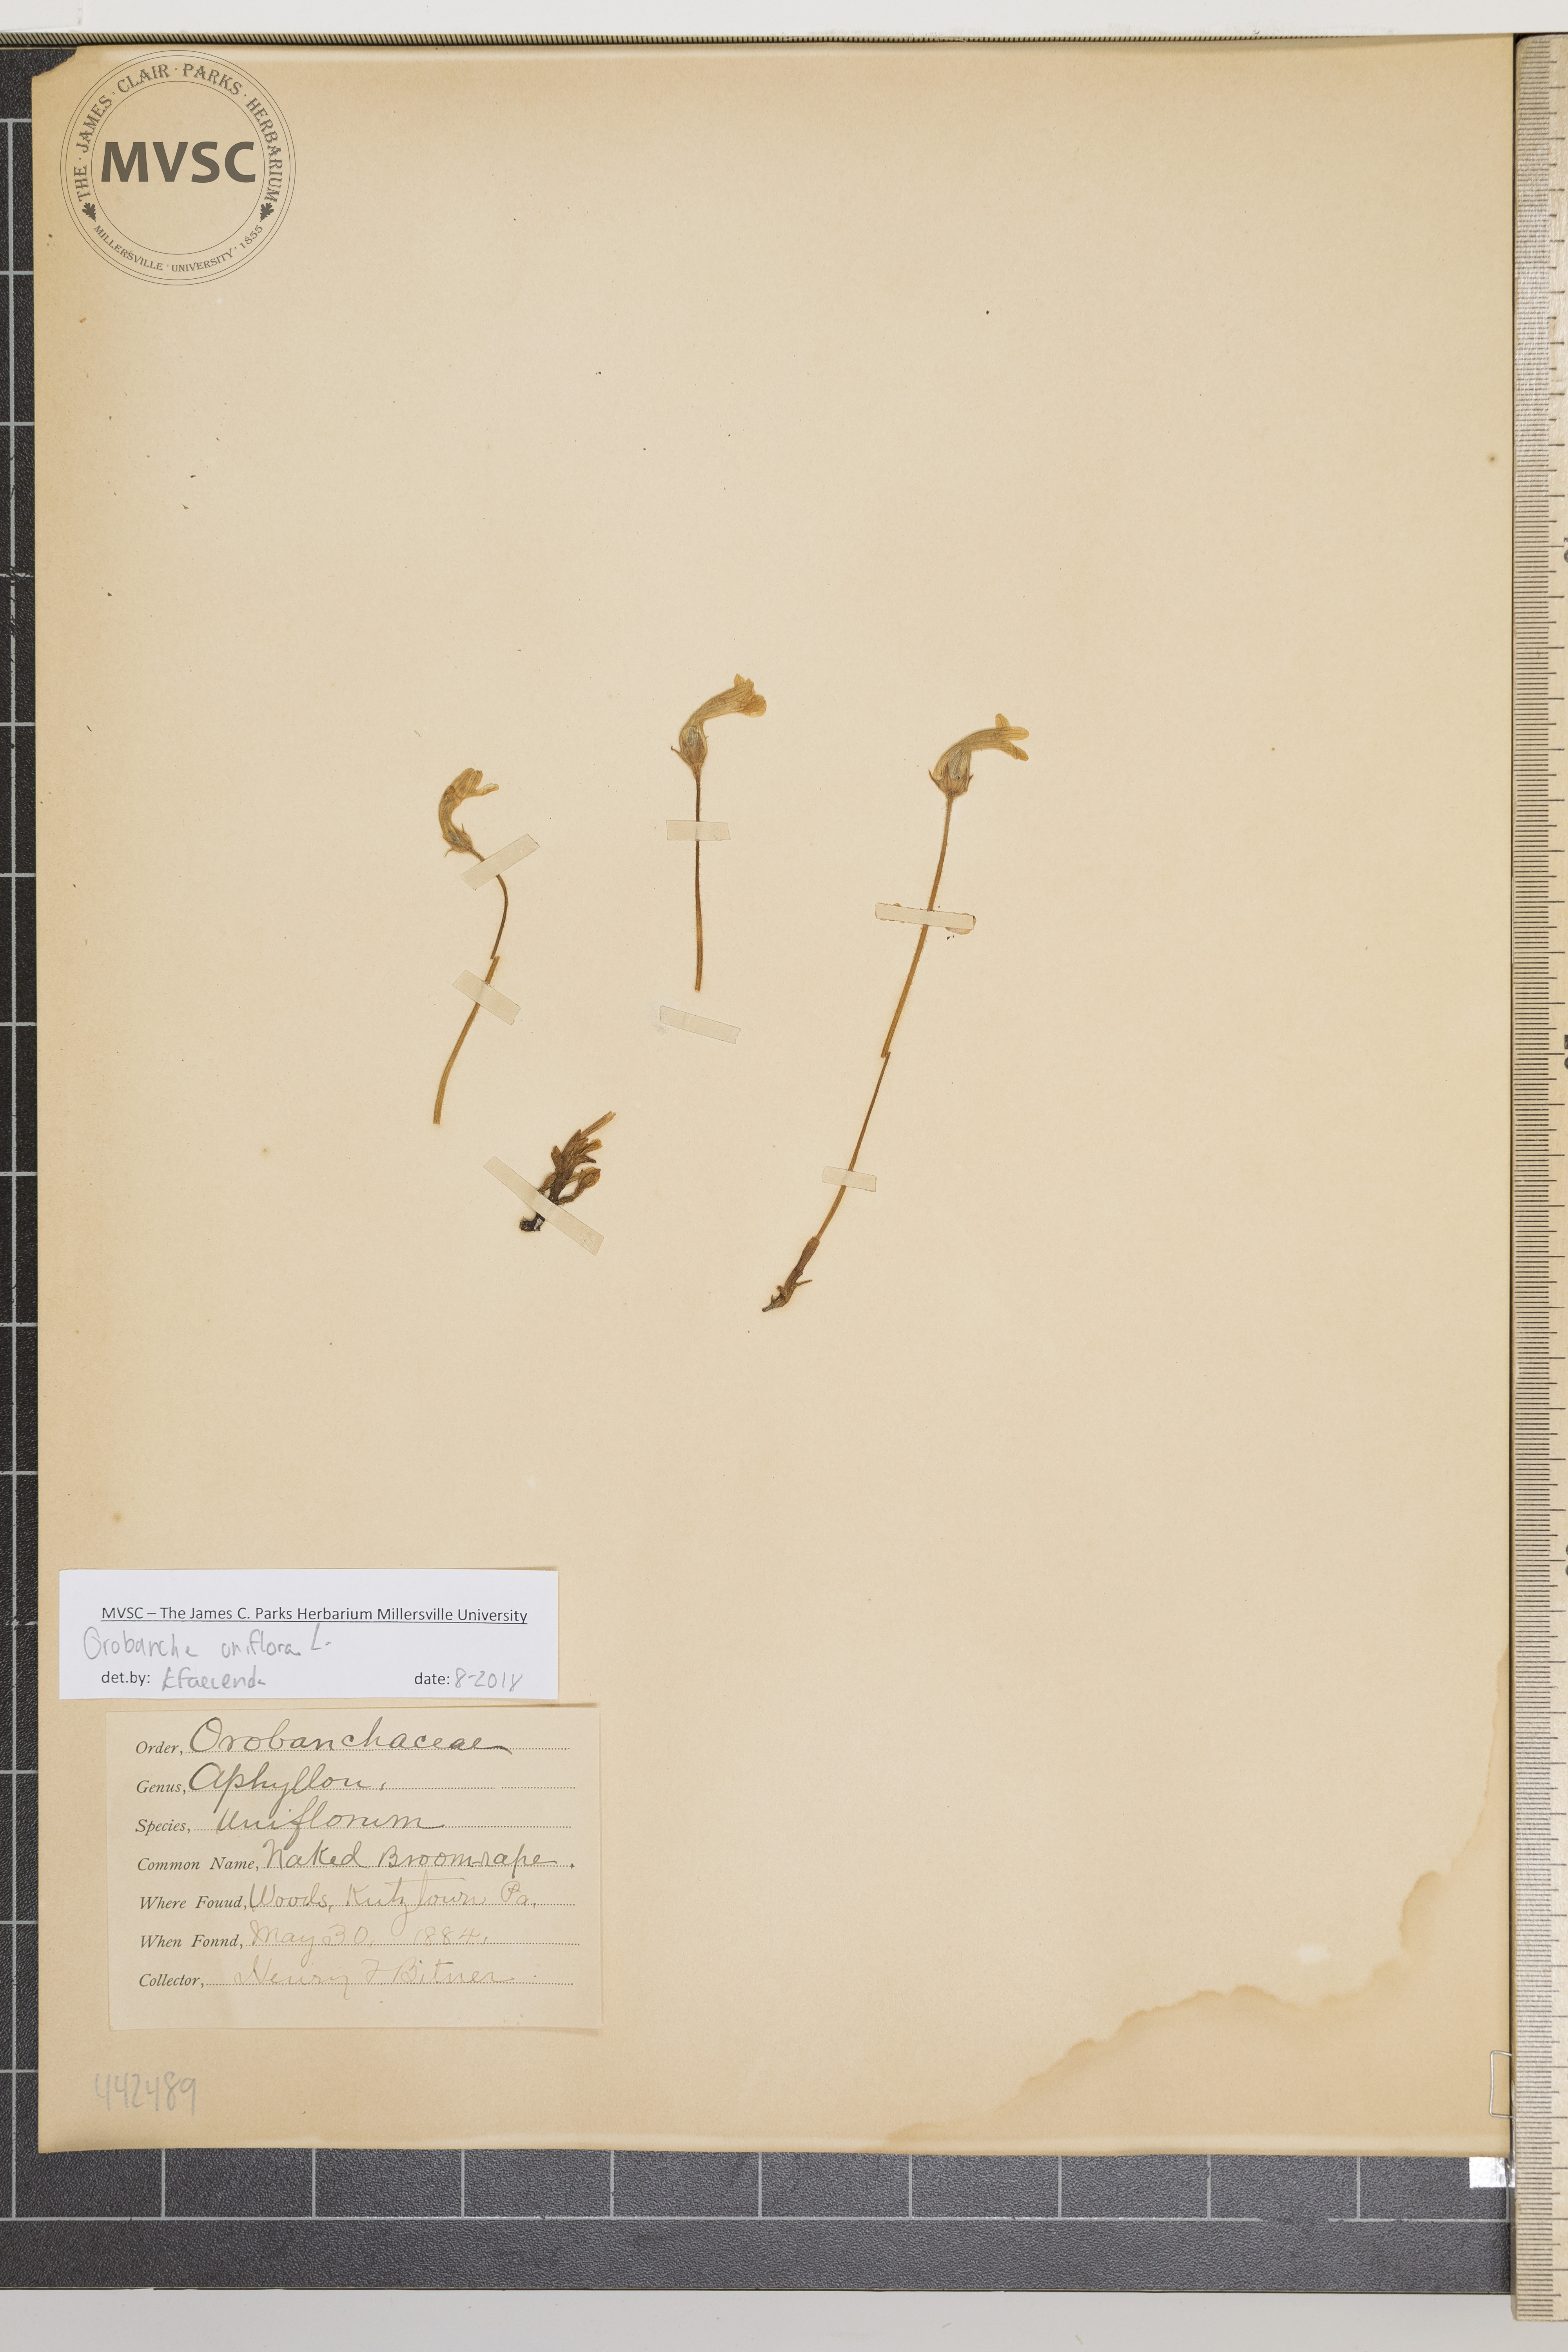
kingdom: Plantae
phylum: Tracheophyta
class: Magnoliopsida
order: Lamiales
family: Orobanchaceae
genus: Aphyllon
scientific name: Aphyllon uniflorum
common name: Naked broomrape
